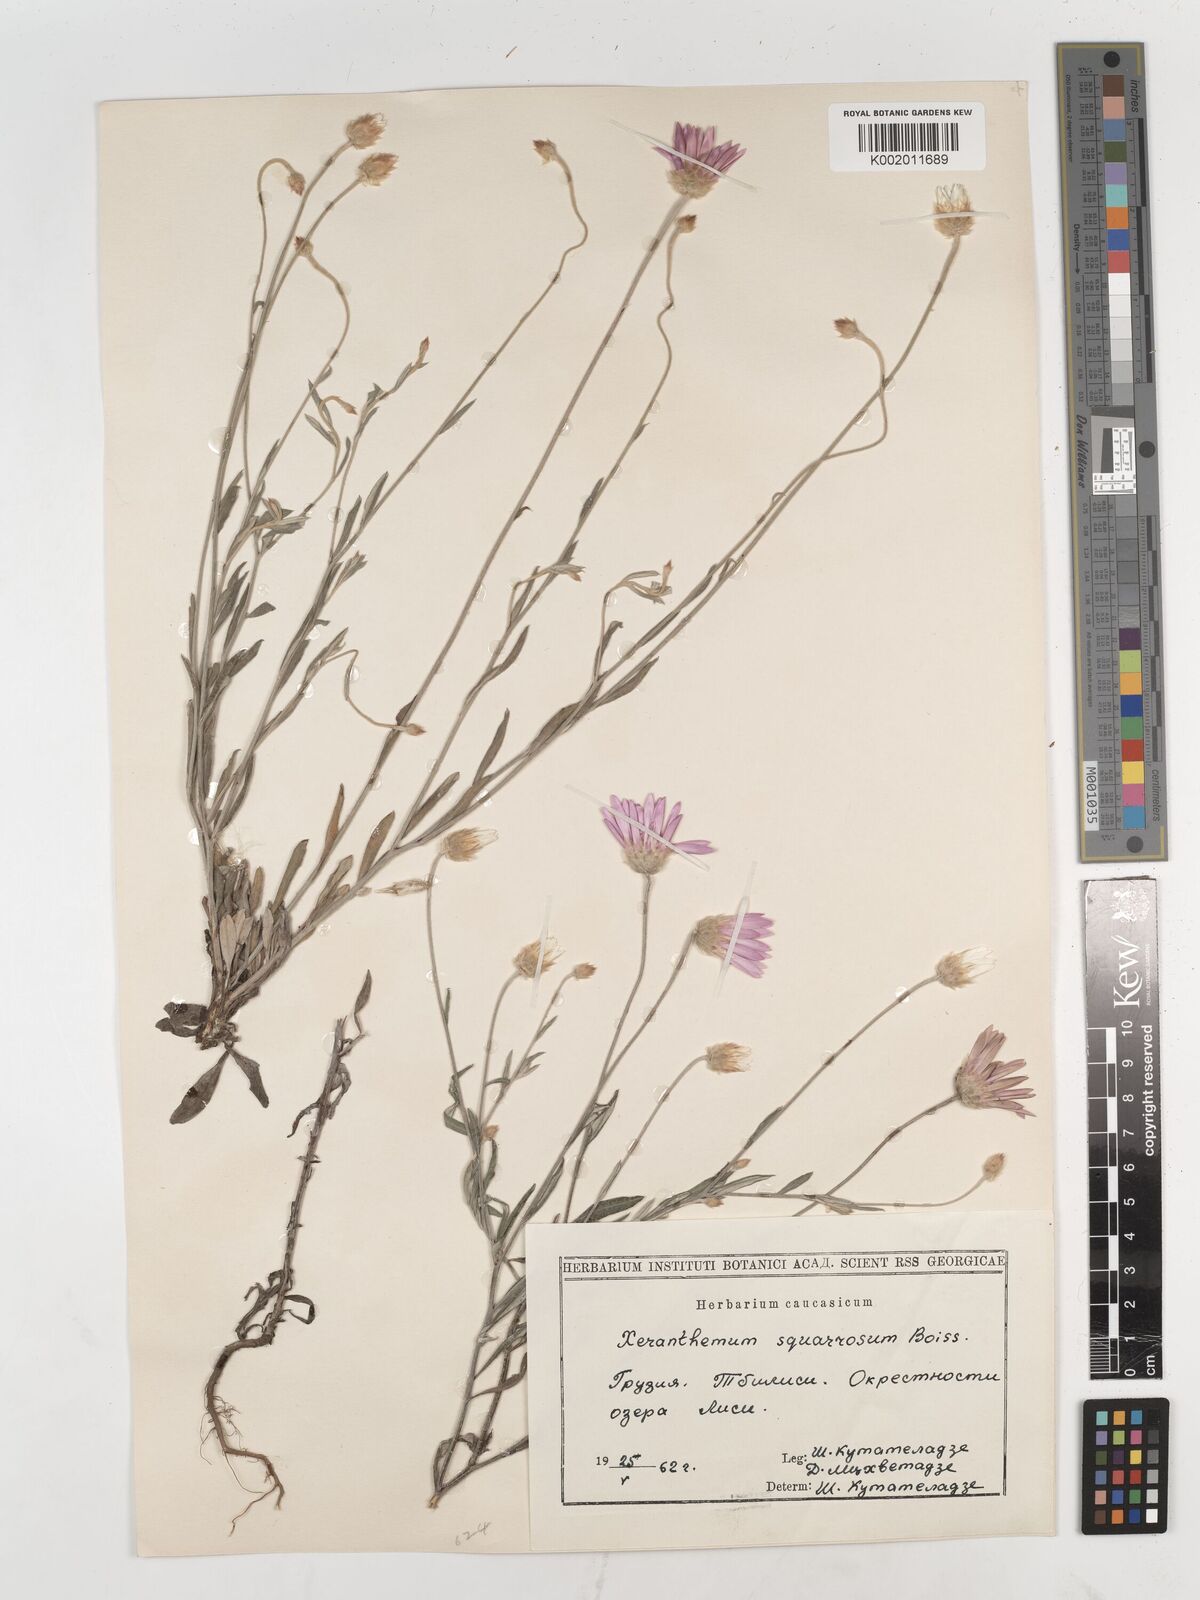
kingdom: Plantae
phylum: Tracheophyta
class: Magnoliopsida
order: Asterales
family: Asteraceae
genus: Xeranthemum
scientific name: Xeranthemum squarrosum
